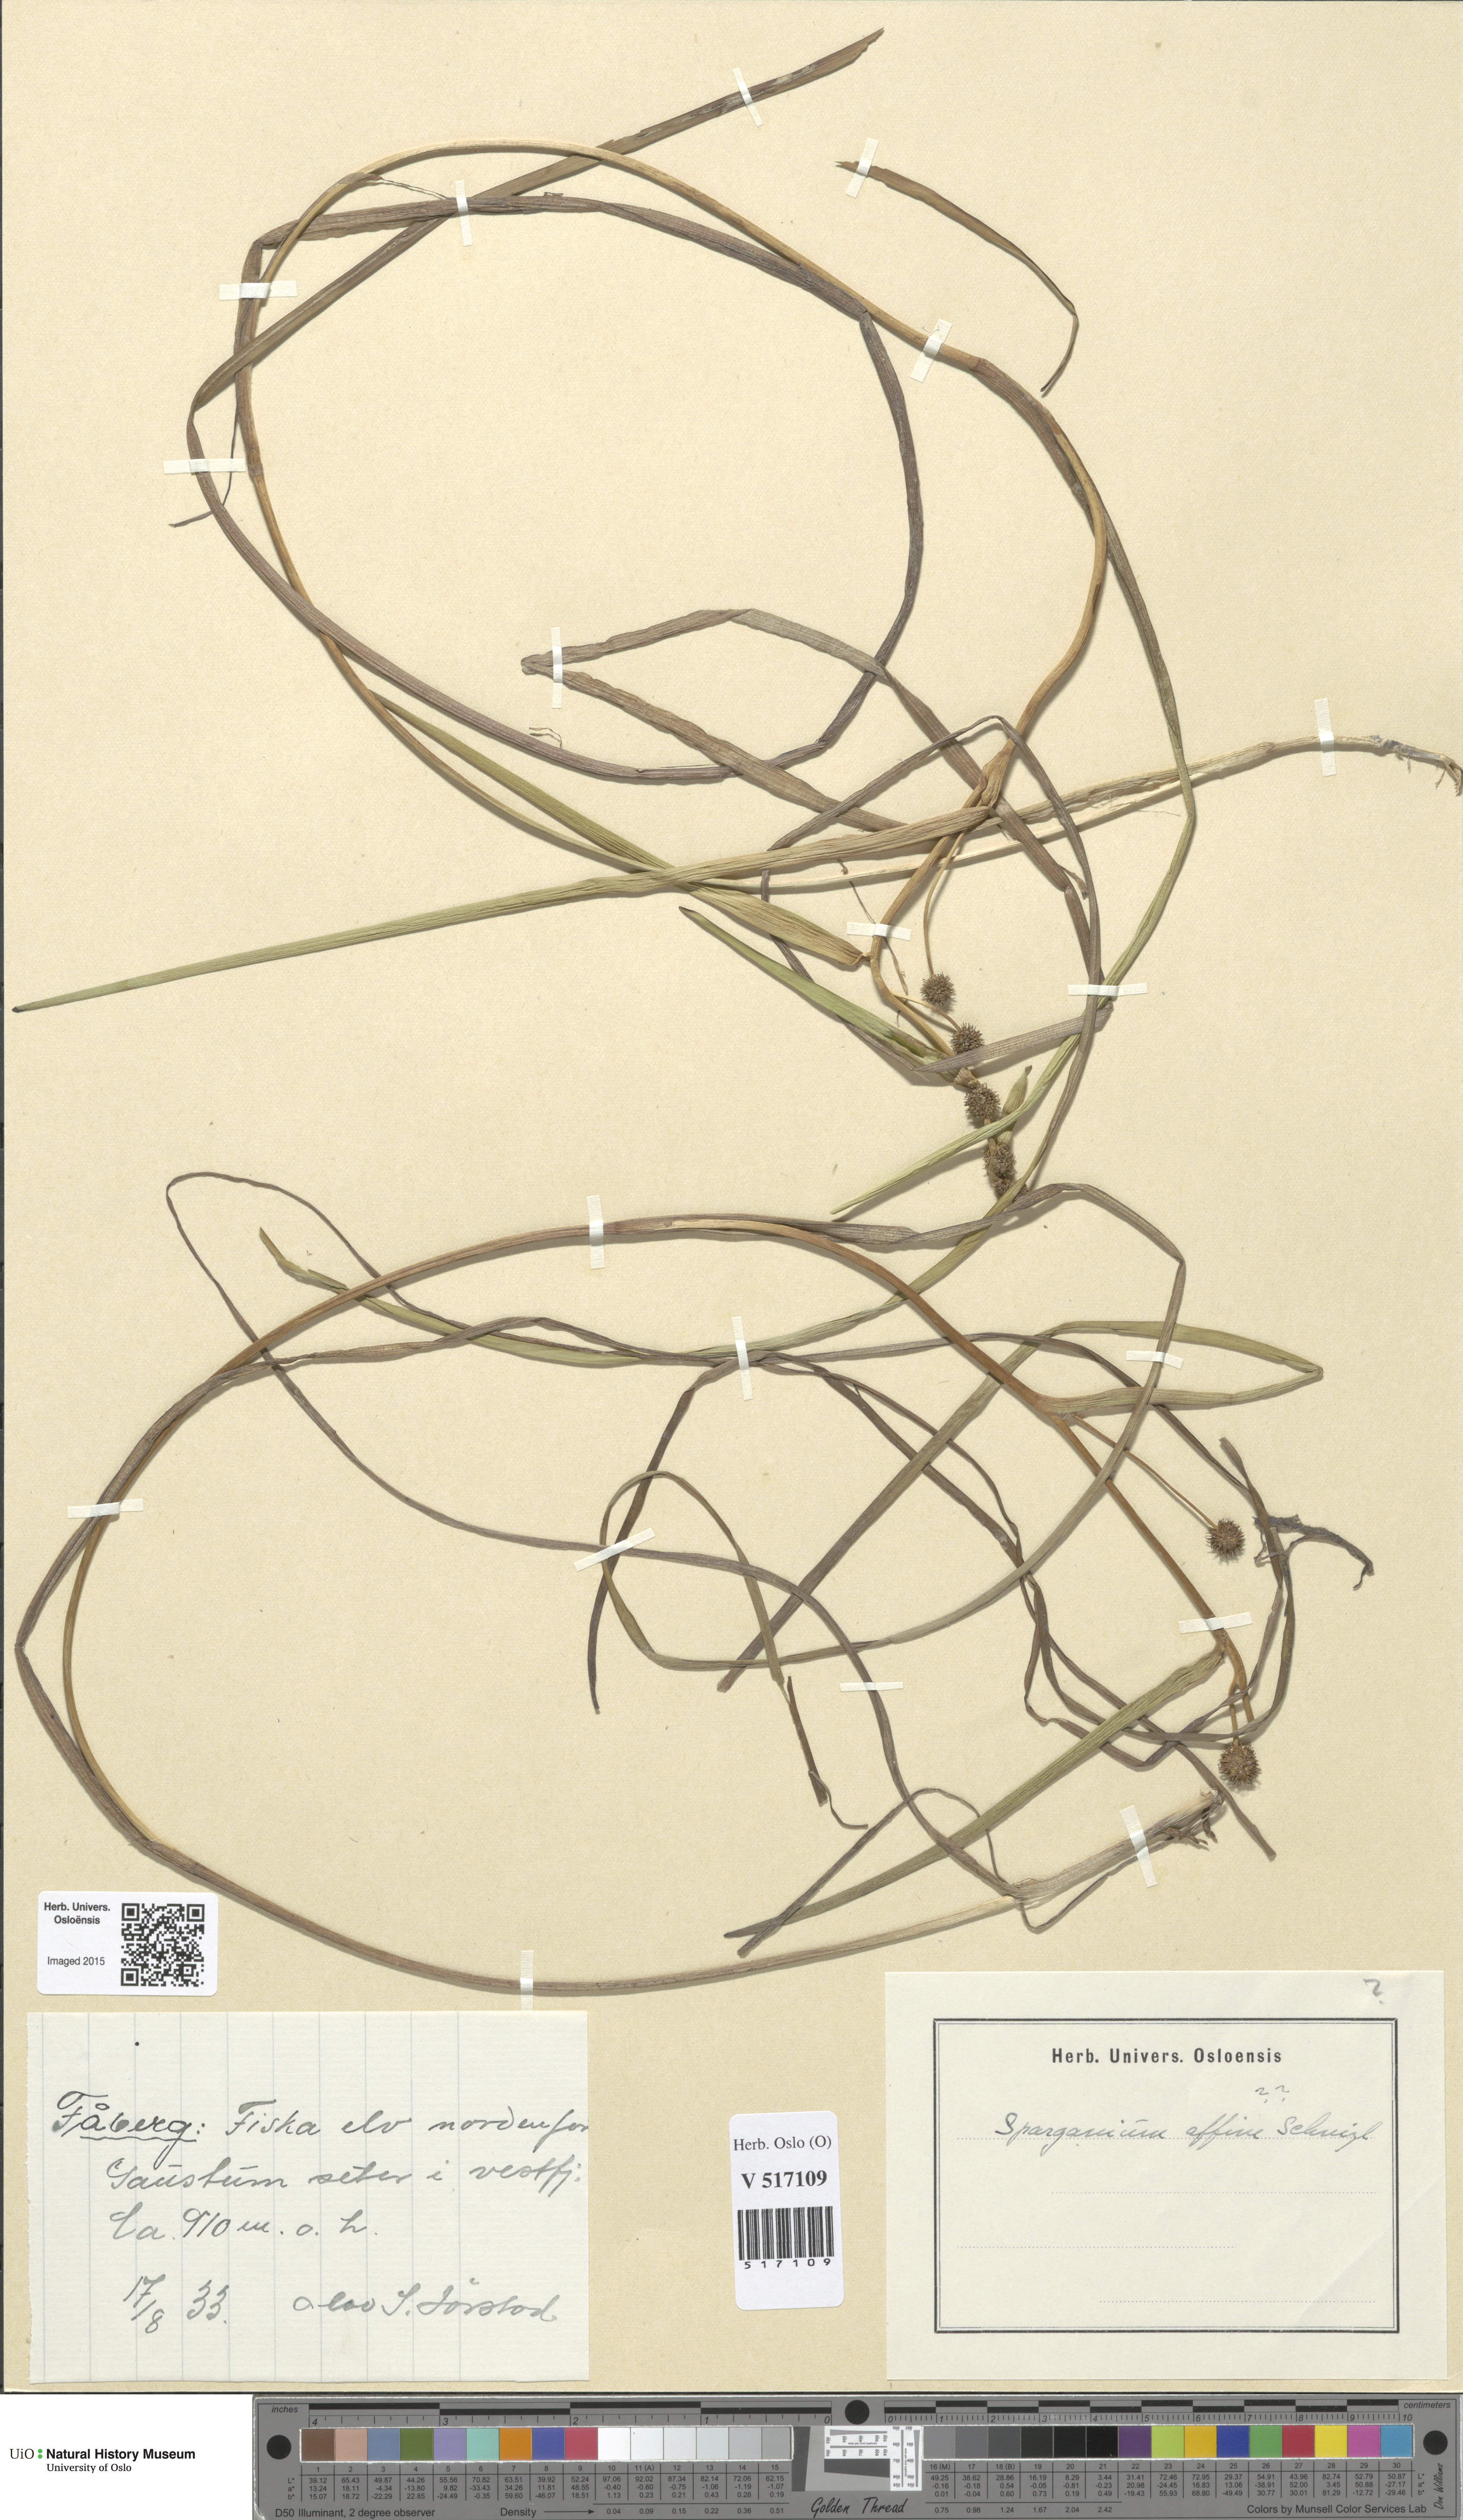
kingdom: Plantae
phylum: Tracheophyta
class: Liliopsida
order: Poales
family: Typhaceae
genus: Sparganium
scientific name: Sparganium angustifolium
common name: Floating bur-reed
